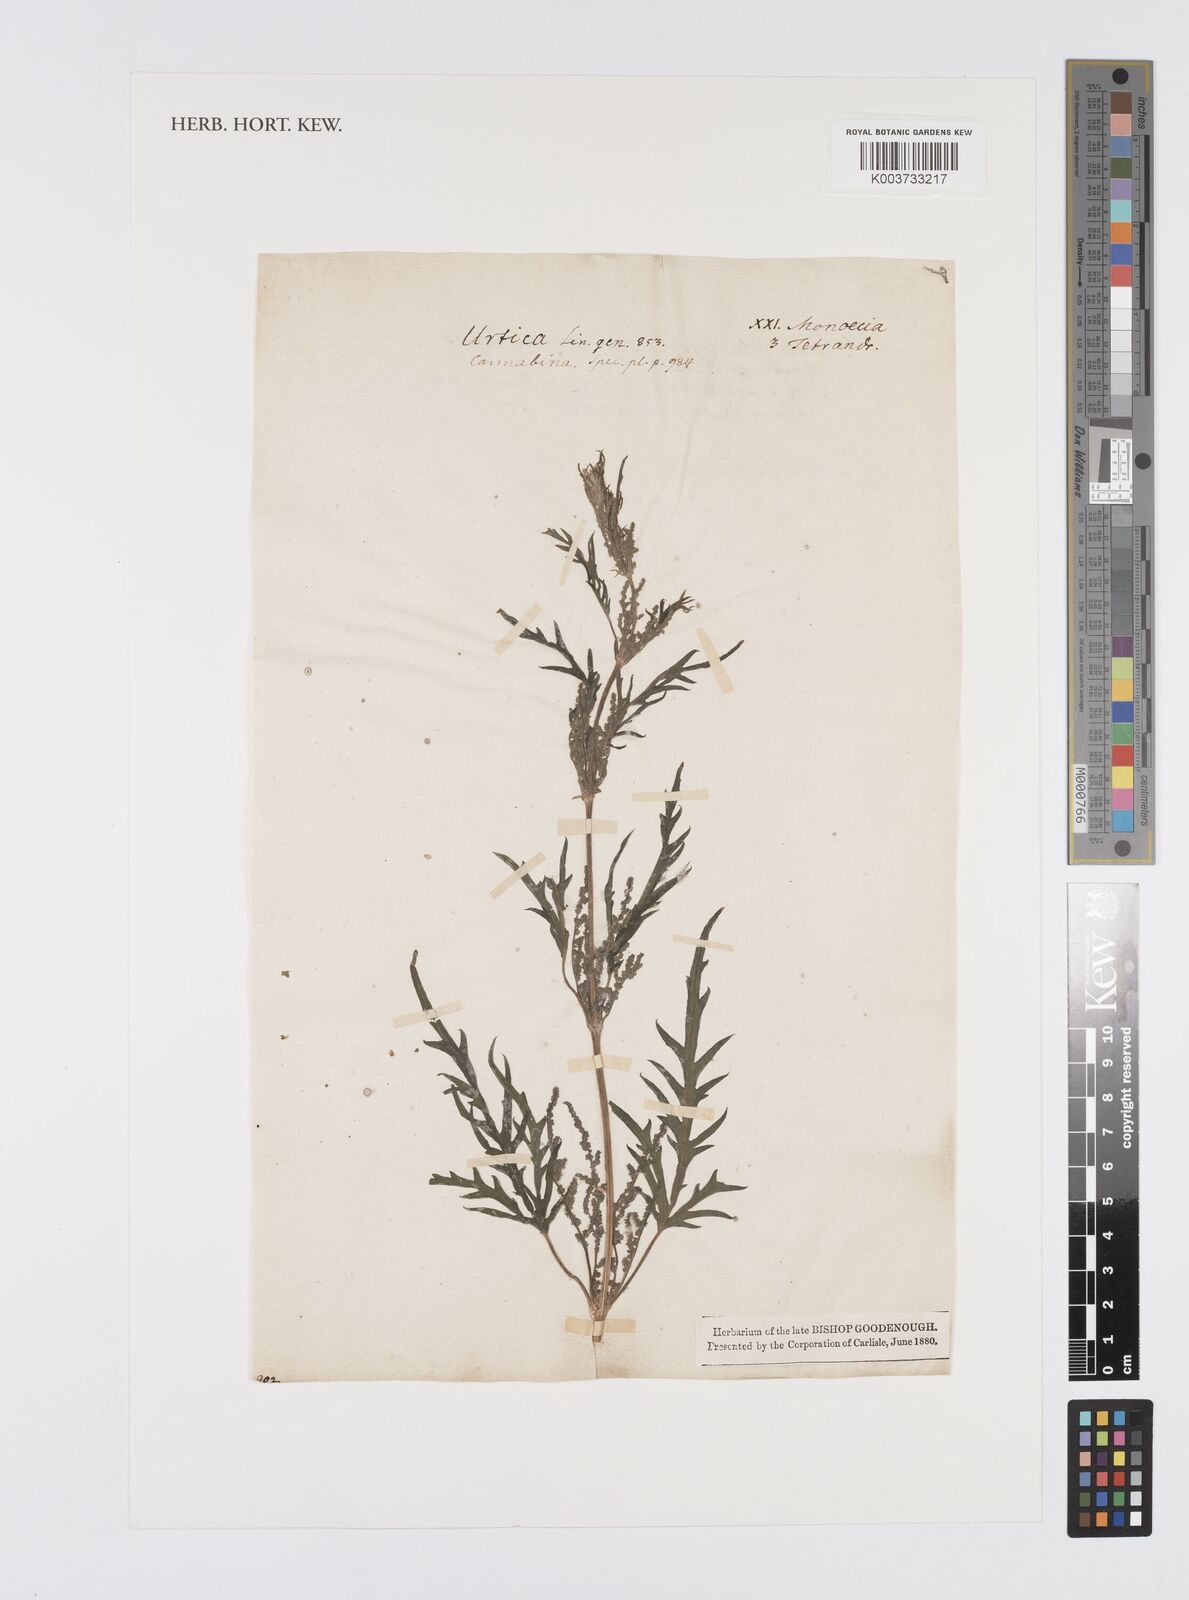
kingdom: Plantae
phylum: Tracheophyta
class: Magnoliopsida
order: Rosales
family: Urticaceae
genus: Urtica
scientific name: Urtica cannabina
